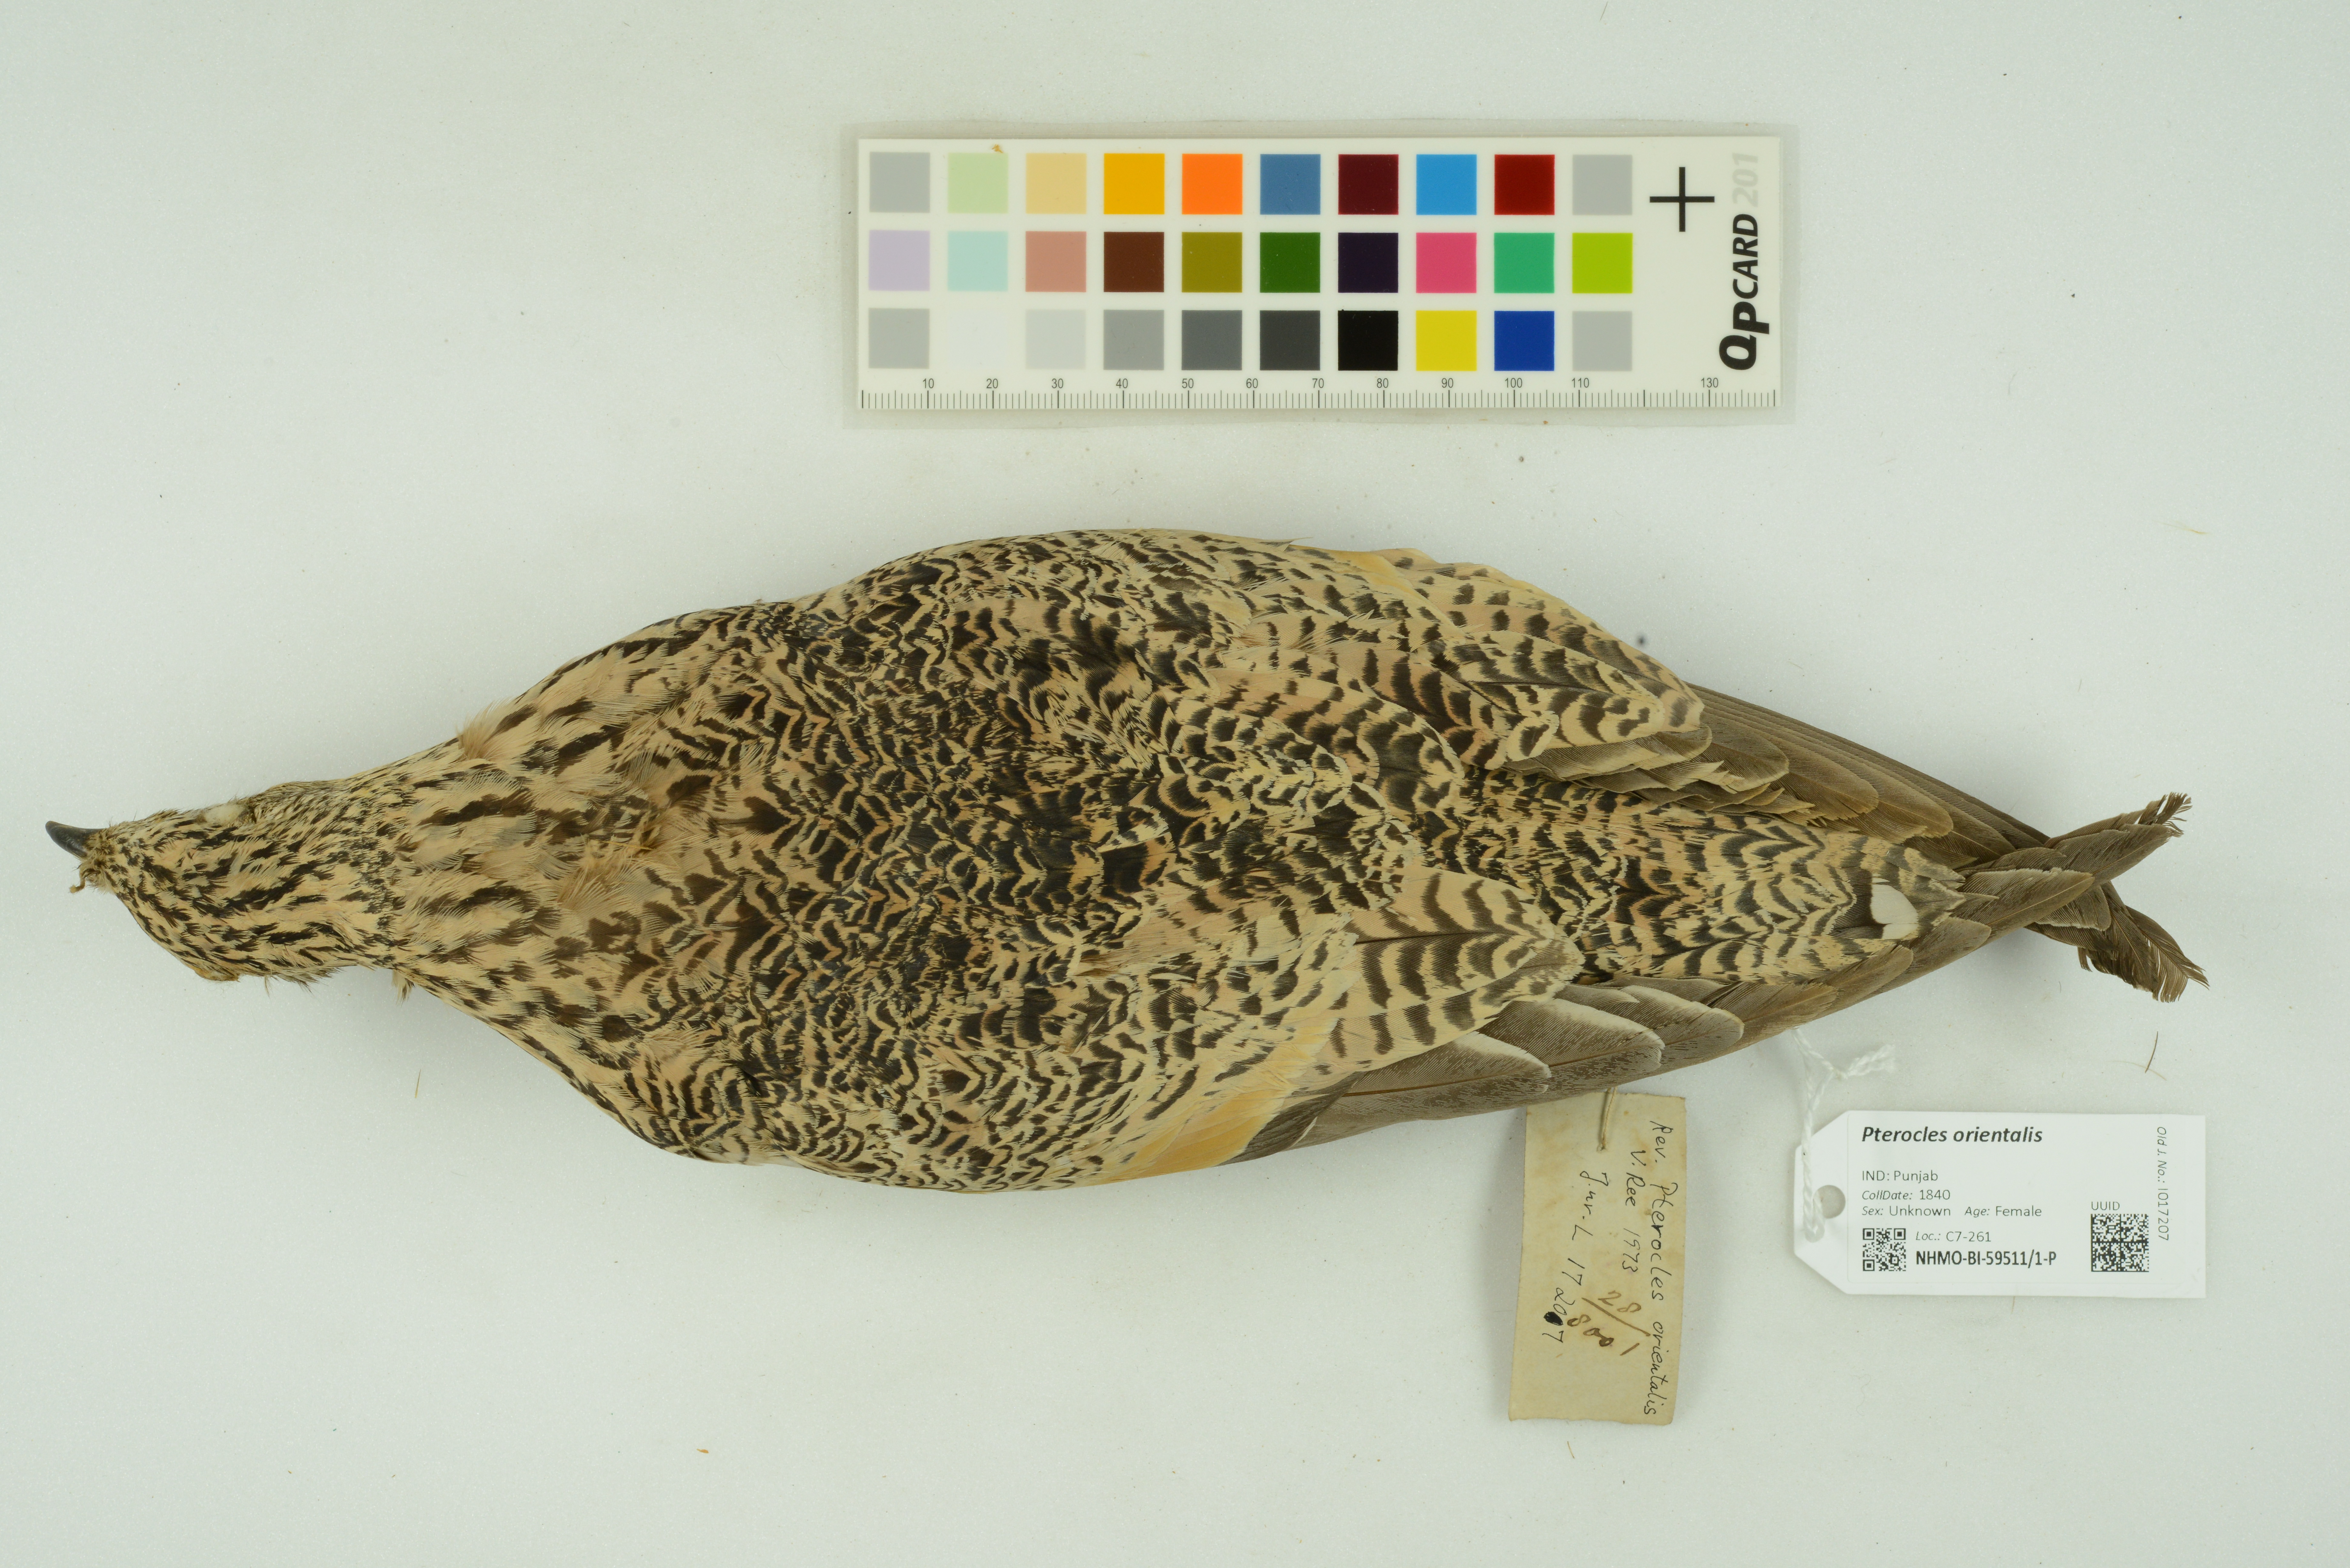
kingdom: Animalia
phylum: Chordata
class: Aves
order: Pteroclidiformes
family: Pteroclididae
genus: Pterocles
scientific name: Pterocles orientalis
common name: Black-bellied sandgrouse
